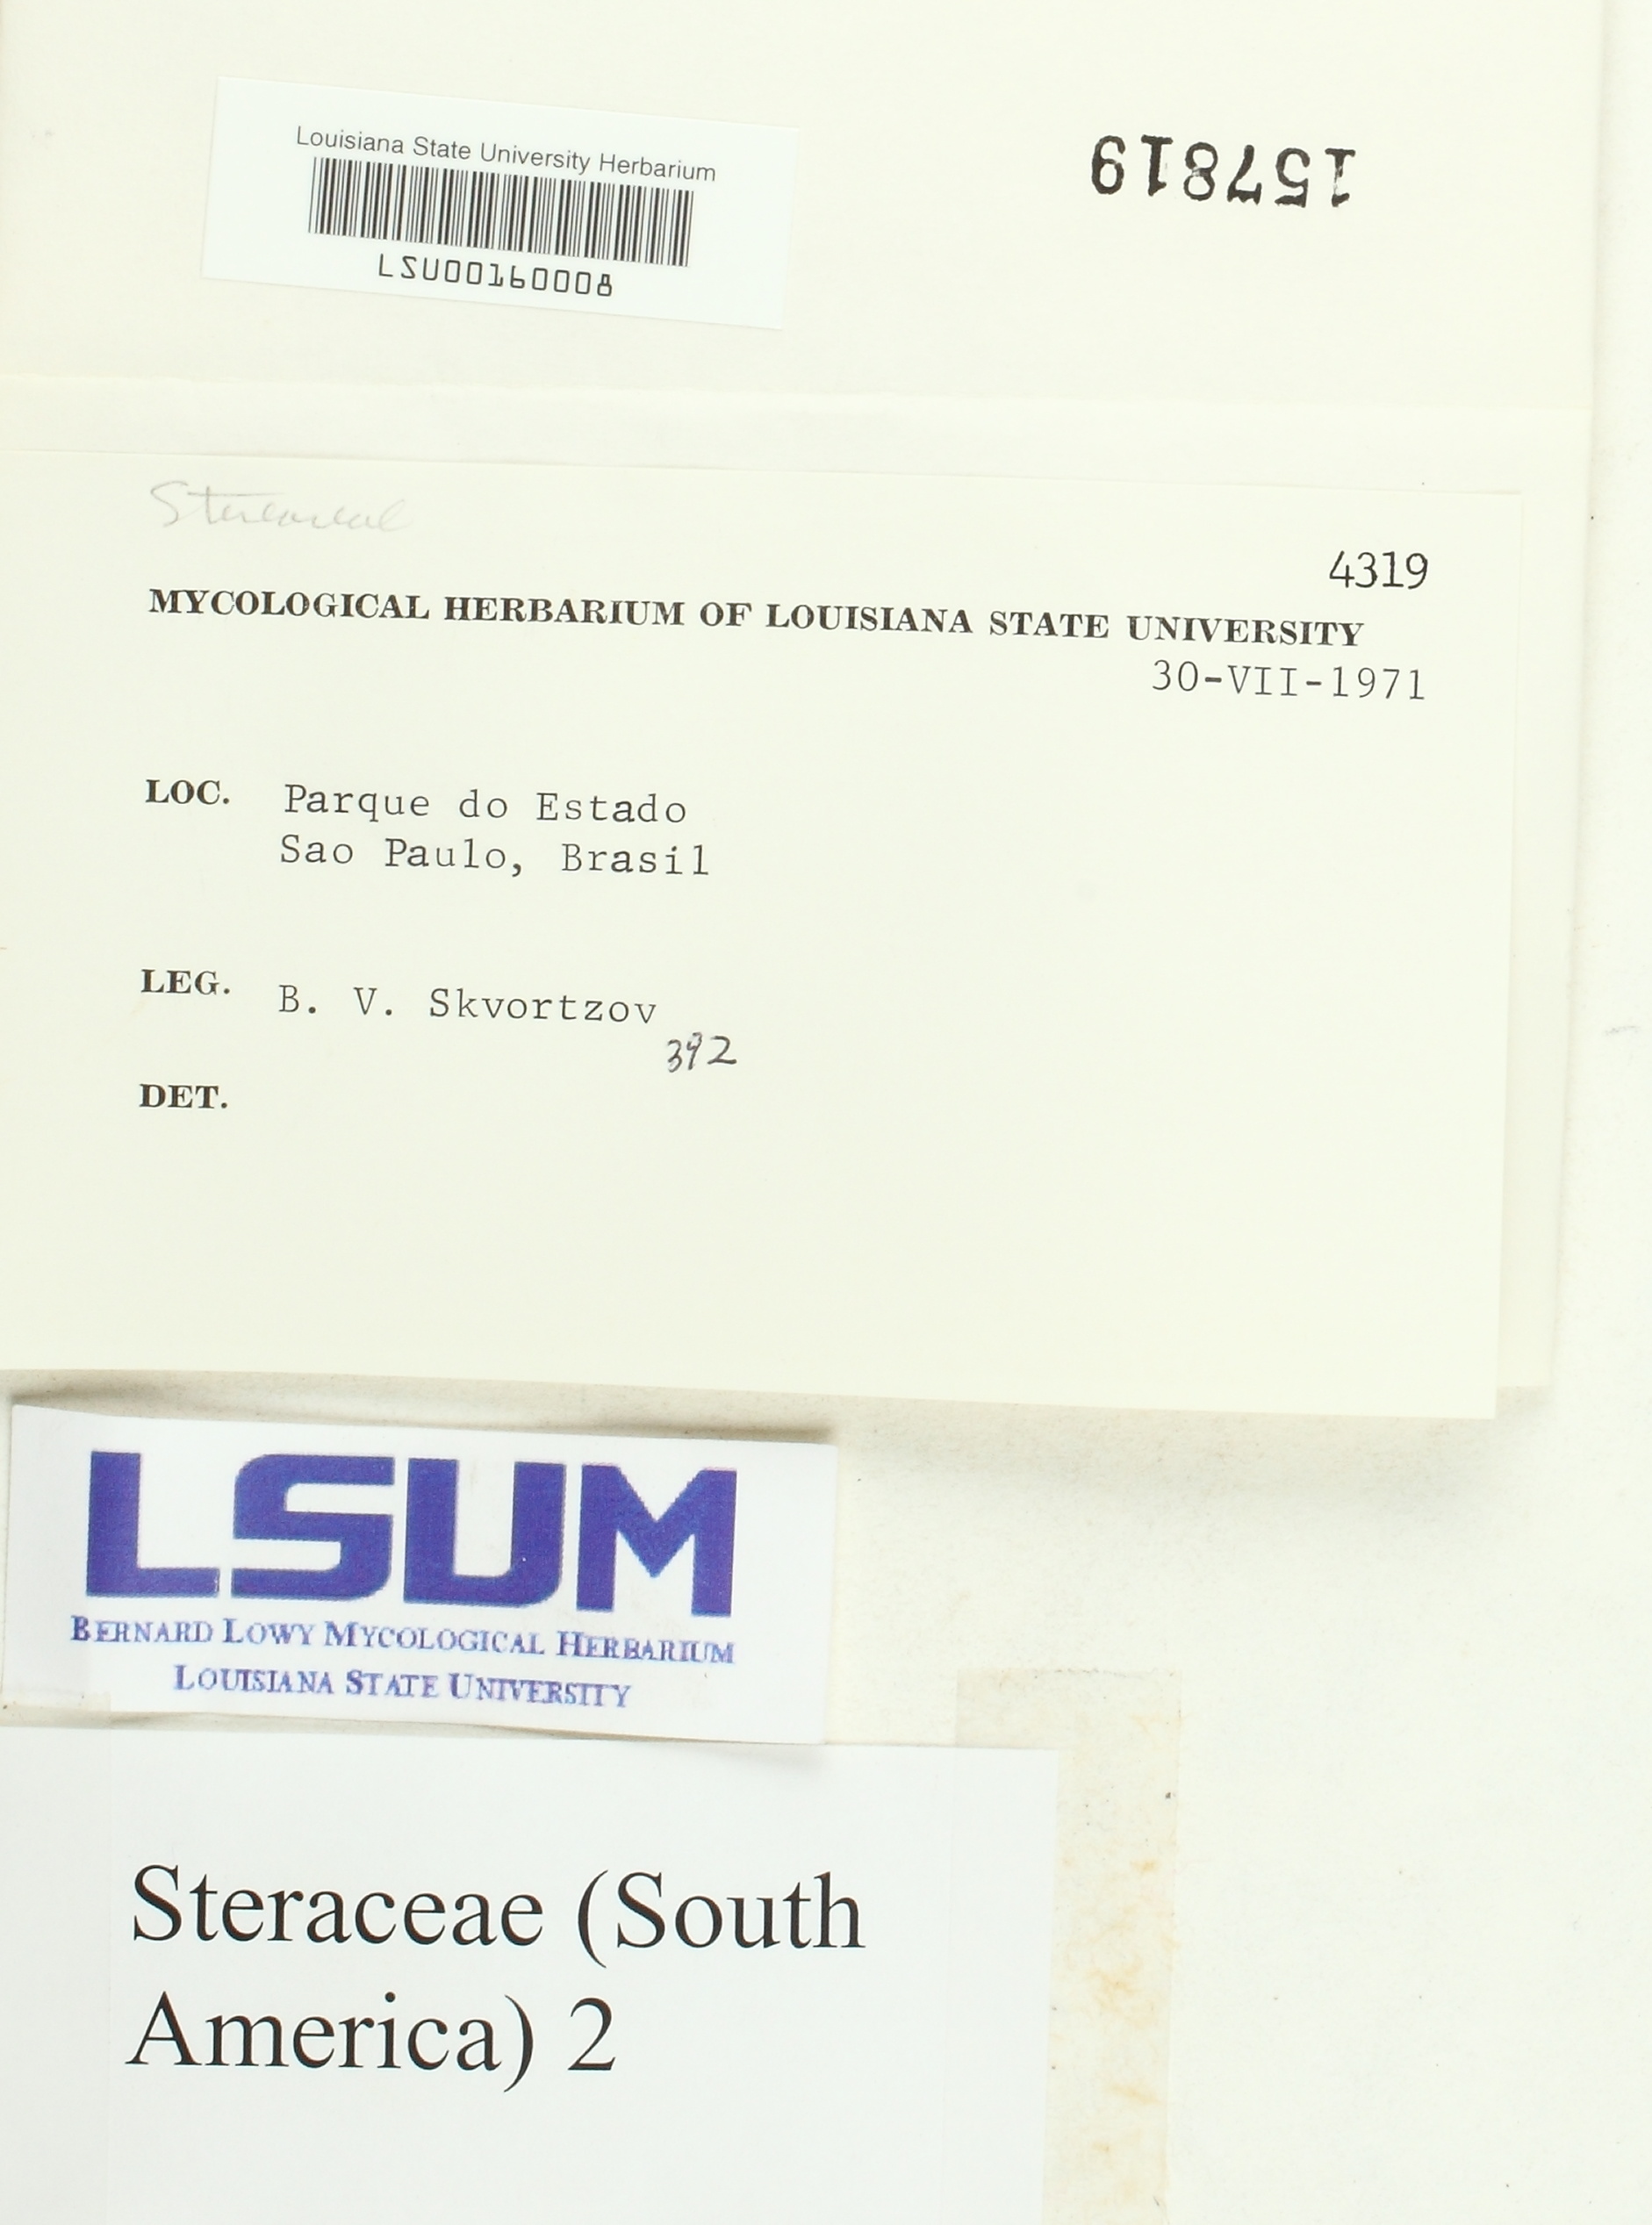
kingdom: Fungi
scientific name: Fungi
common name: Fungi
